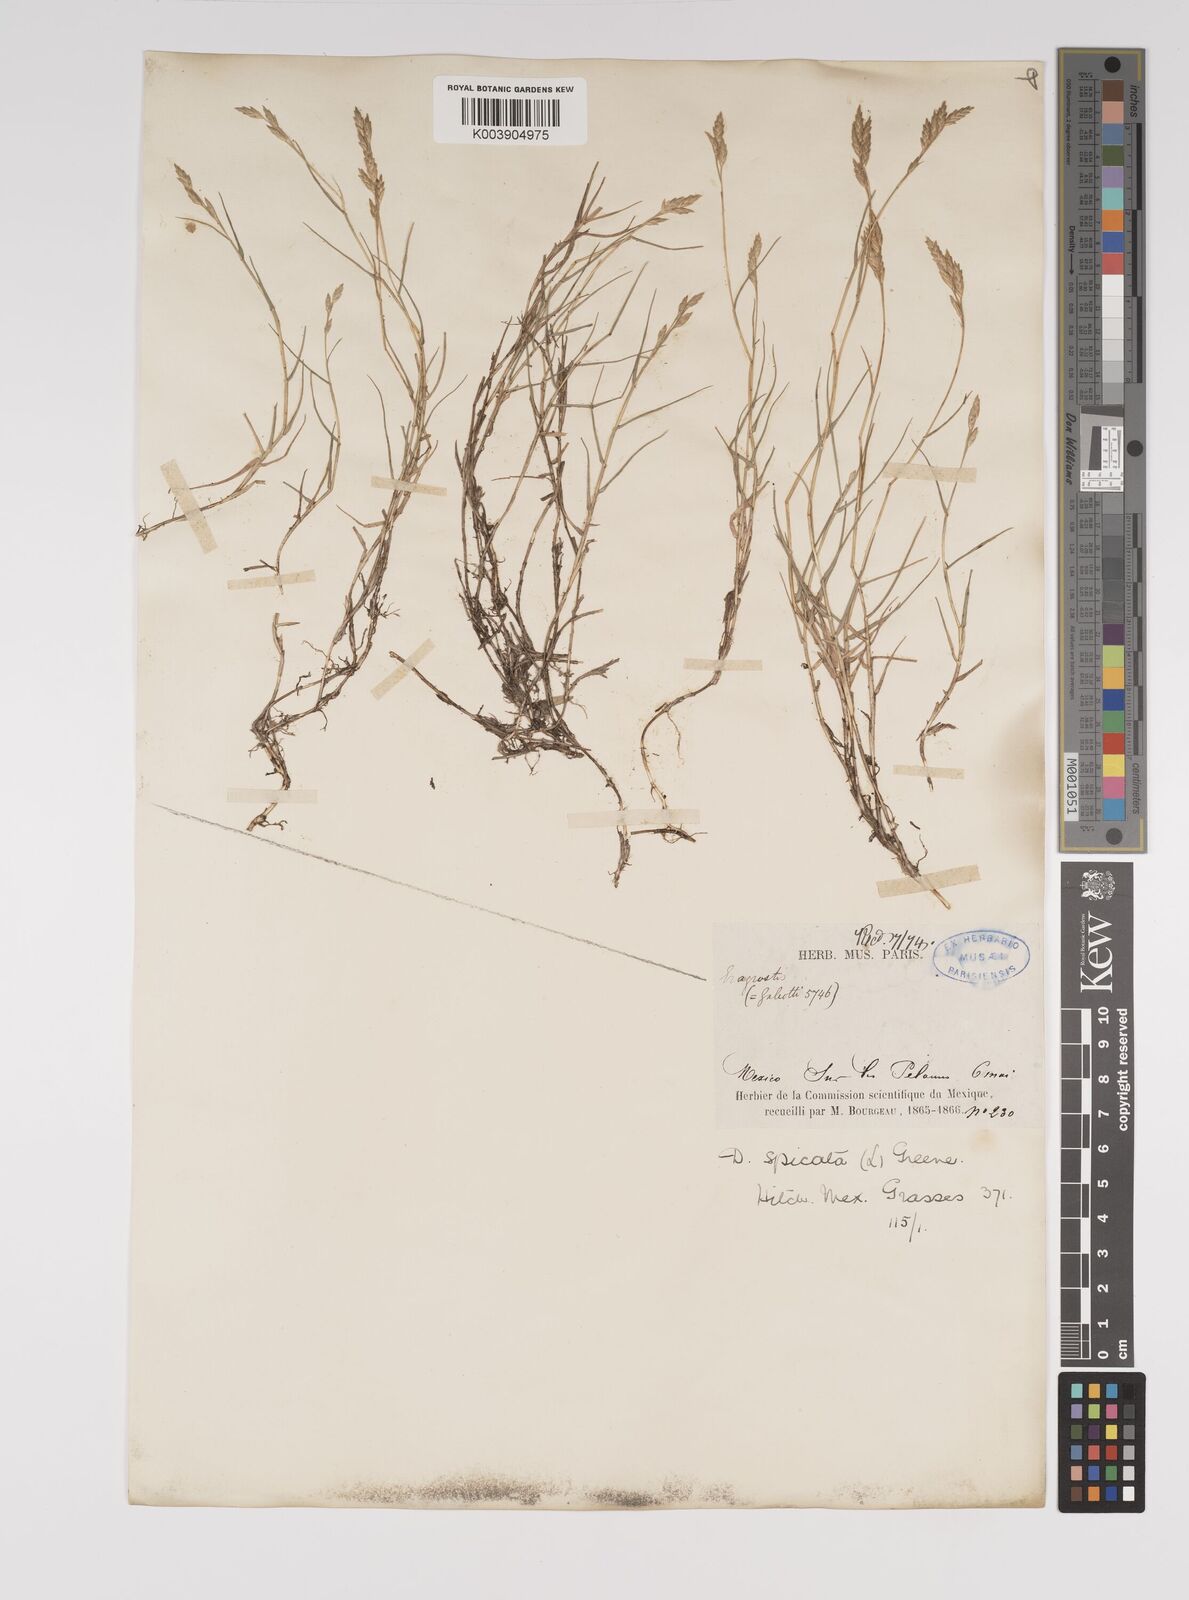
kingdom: Plantae
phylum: Tracheophyta
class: Liliopsida
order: Poales
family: Poaceae
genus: Distichlis
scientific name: Distichlis spicata
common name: Saltgrass
